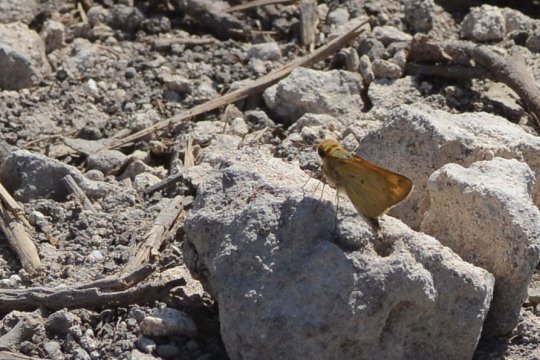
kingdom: Animalia
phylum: Arthropoda
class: Insecta
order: Lepidoptera
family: Hesperiidae
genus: Hylephila
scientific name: Hylephila phyleus
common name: Fiery Skipper
